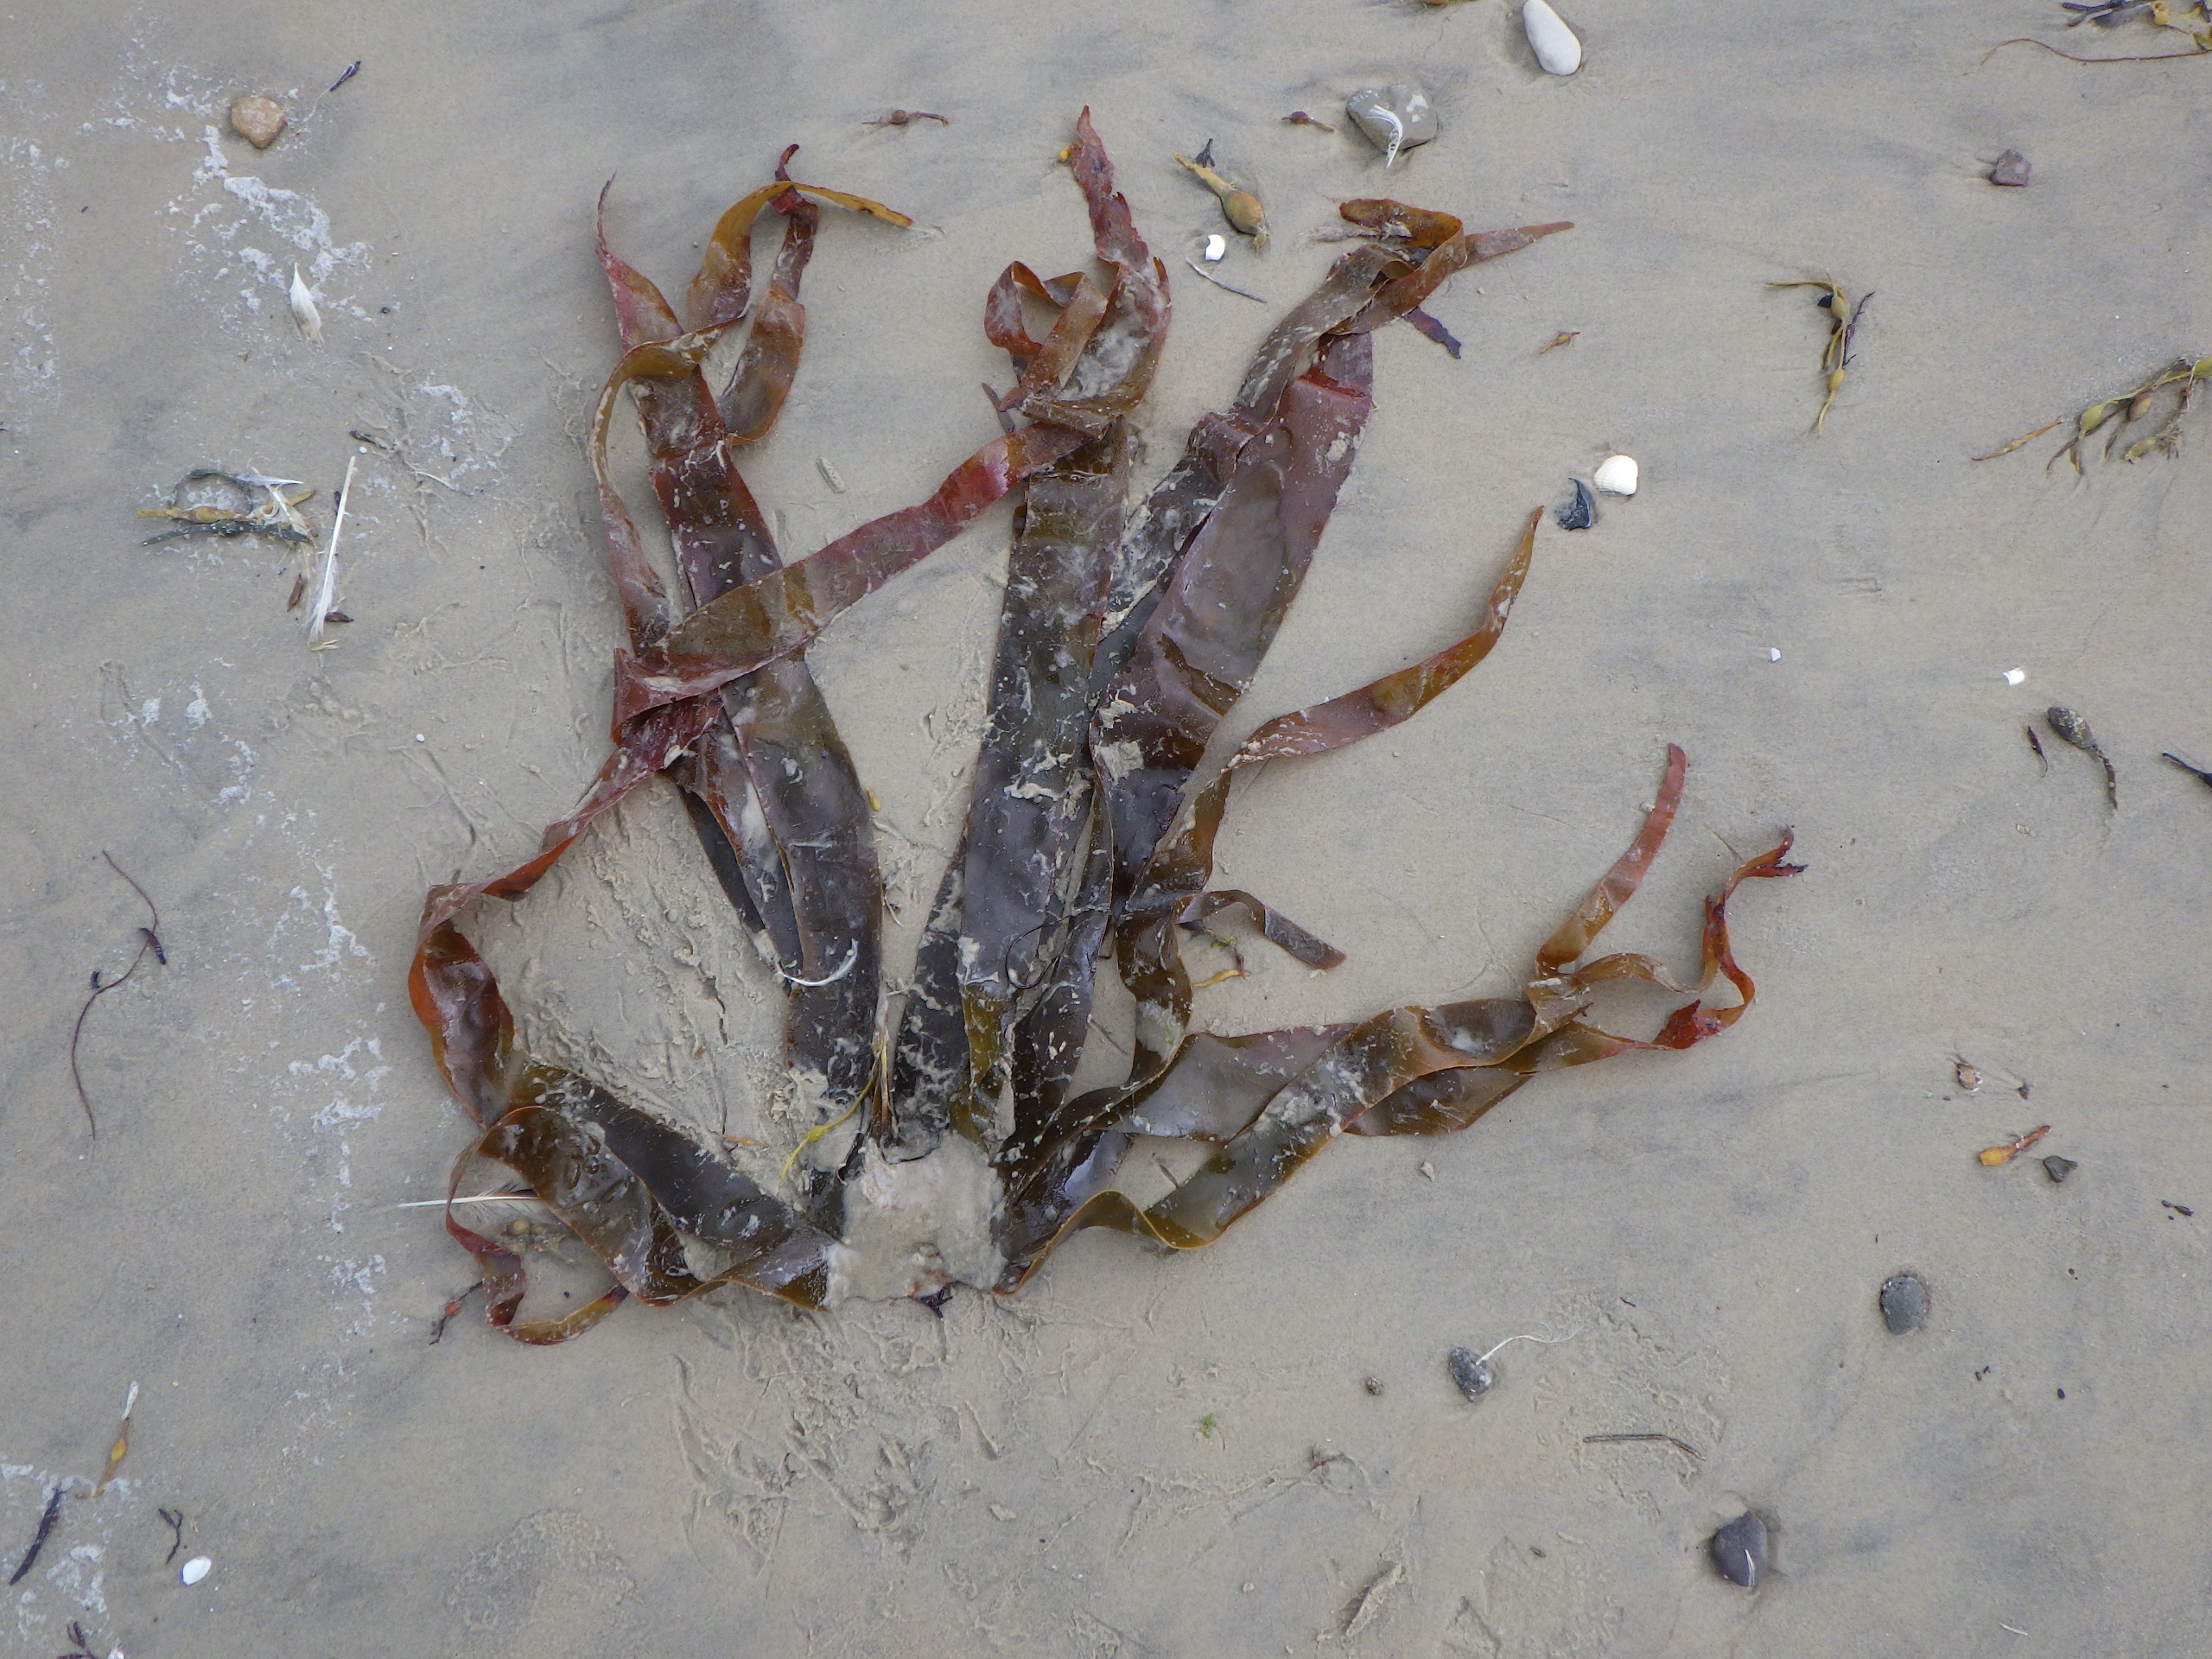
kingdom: Chromista
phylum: Ochrophyta
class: Phaeophyceae
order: Laminariales
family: Laminariaceae
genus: Laminaria
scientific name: Laminaria digitata
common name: Fingertang
